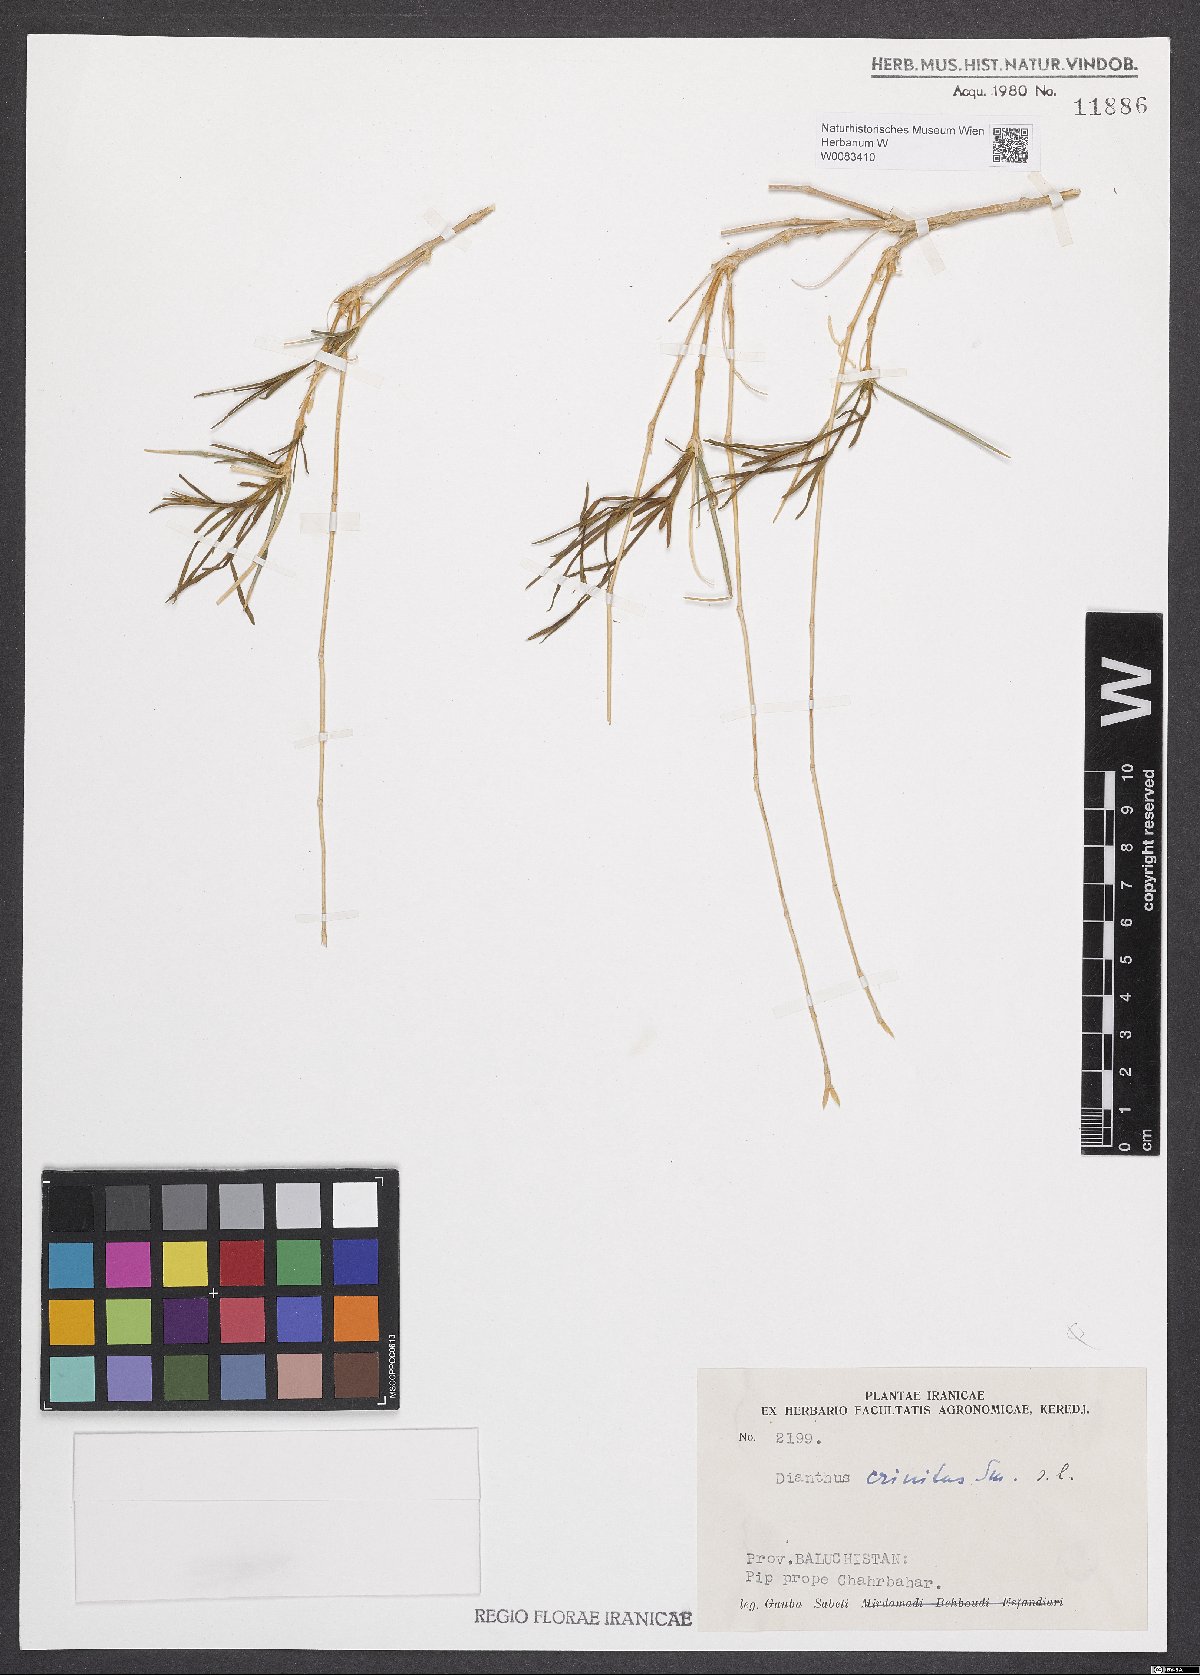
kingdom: Plantae
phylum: Tracheophyta
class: Magnoliopsida
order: Caryophyllales
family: Caryophyllaceae
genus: Dianthus
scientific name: Dianthus crinitus
